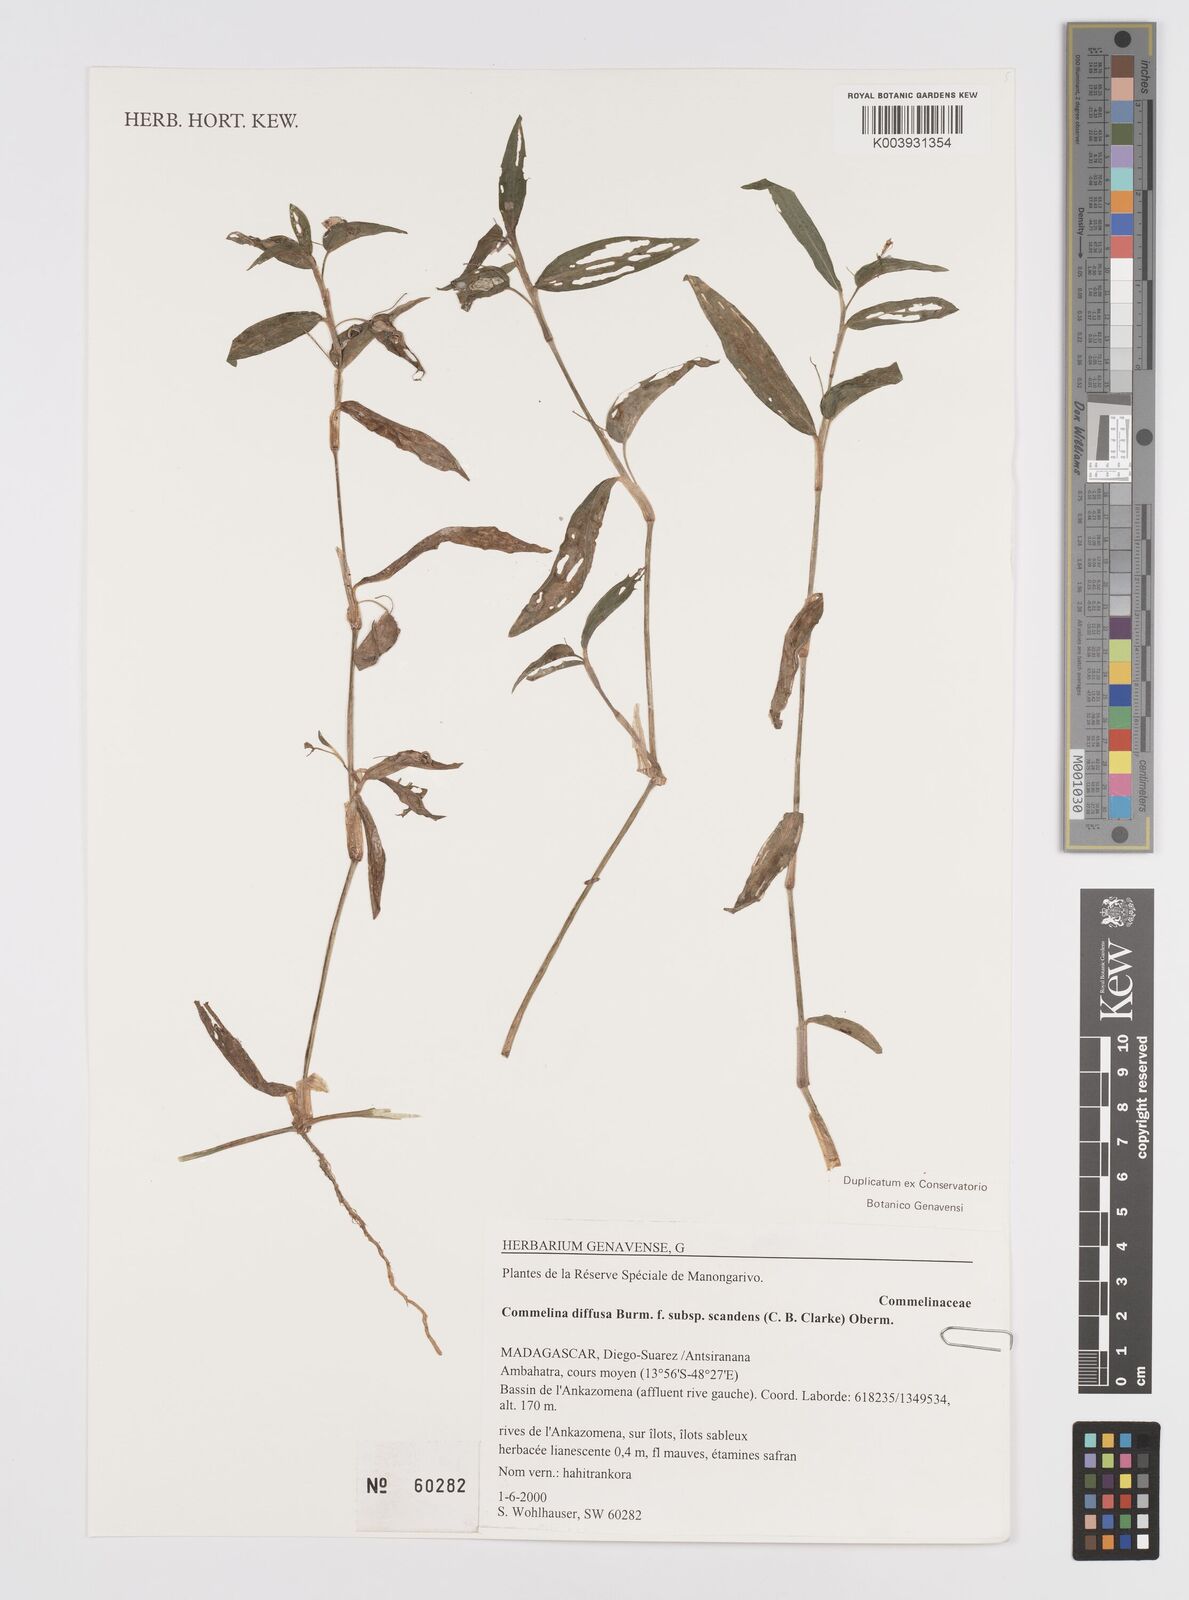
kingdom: Plantae
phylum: Tracheophyta
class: Liliopsida
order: Commelinales
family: Commelinaceae
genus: Murdannia
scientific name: Murdannia nudiflora
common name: Nakedstem dewflower
